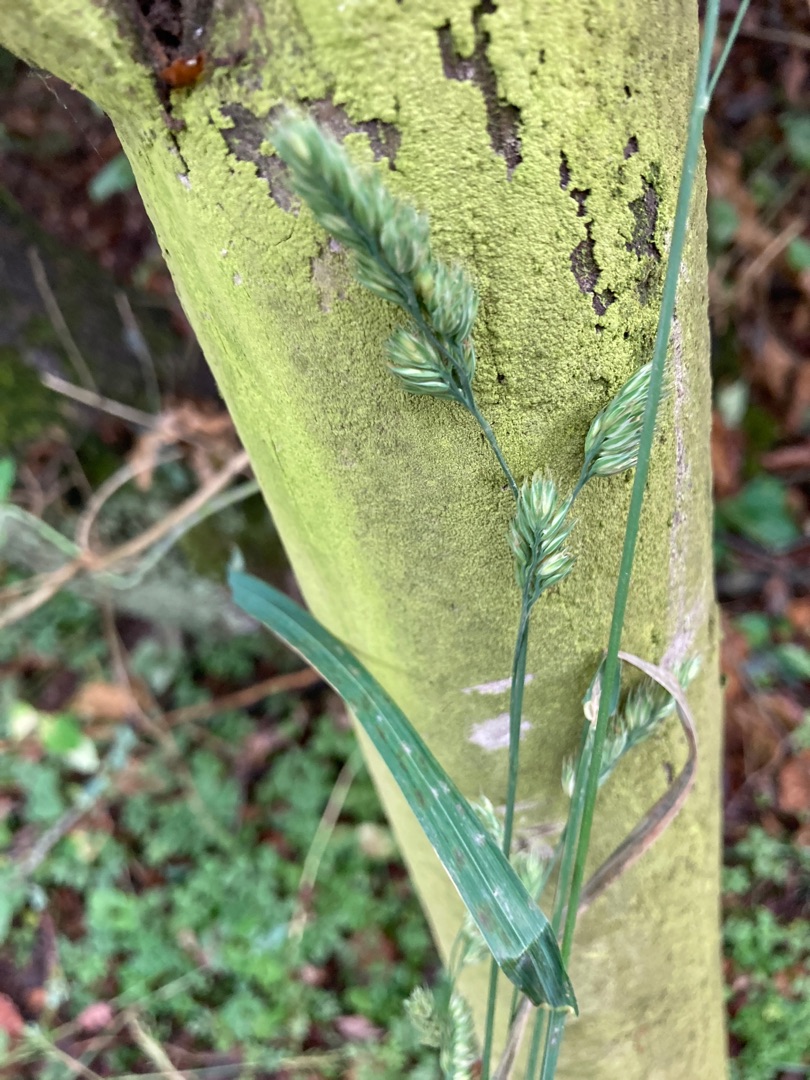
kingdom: Plantae
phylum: Tracheophyta
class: Liliopsida
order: Poales
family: Poaceae
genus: Dactylis
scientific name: Dactylis glomerata
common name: Almindelig hundegræs
